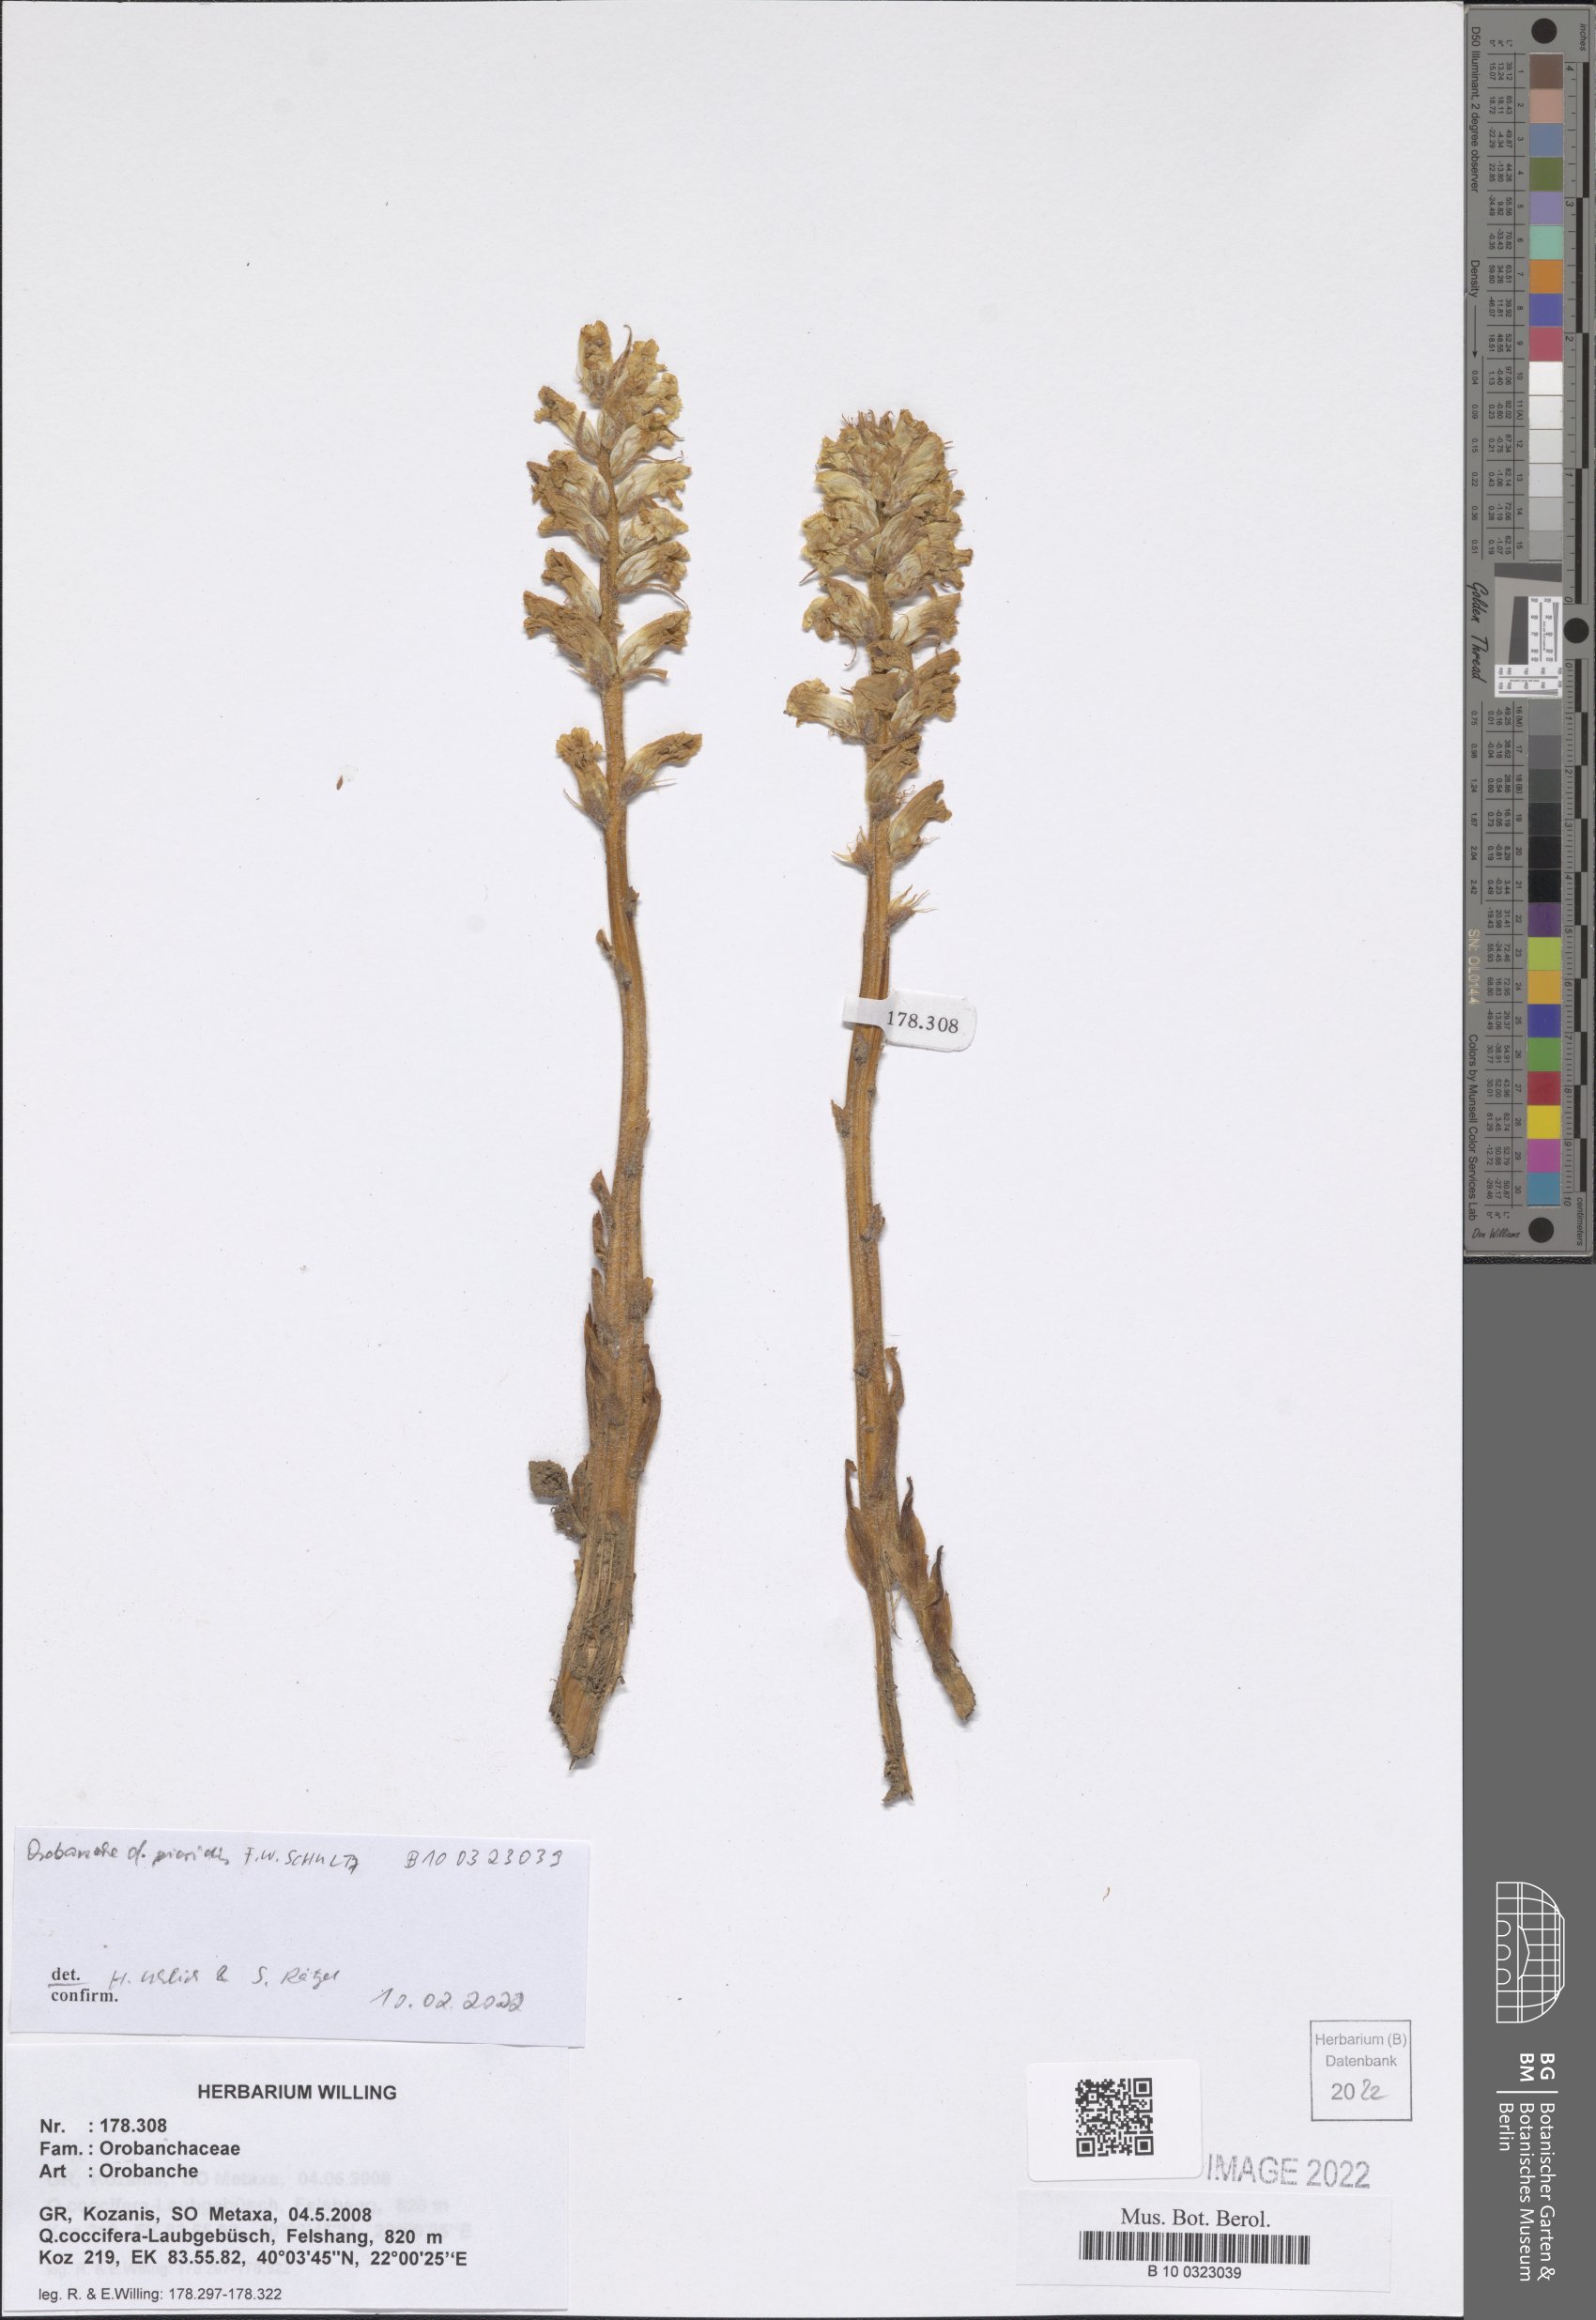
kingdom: Plantae
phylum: Tracheophyta
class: Magnoliopsida
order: Lamiales
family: Orobanchaceae
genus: Orobanche
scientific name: Orobanche picridis
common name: Oxtongue broomrape
